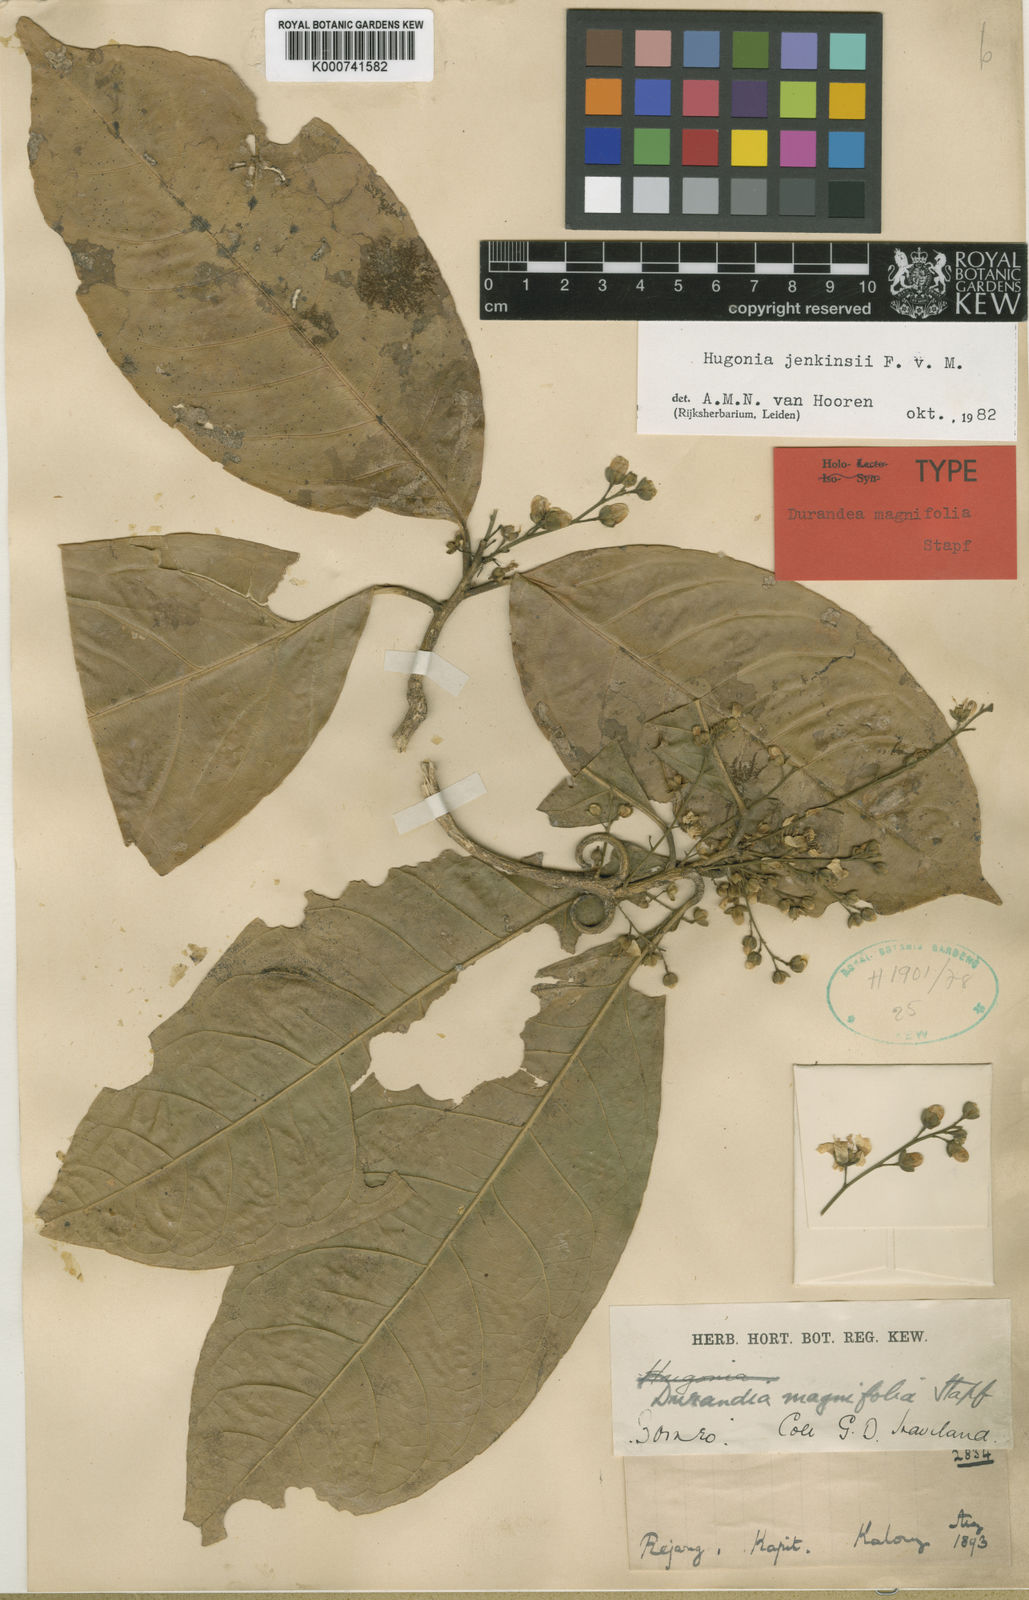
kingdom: Plantae
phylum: Tracheophyta
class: Magnoliopsida
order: Malpighiales
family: Linaceae
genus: Philbornea
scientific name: Philbornea magnifolia
